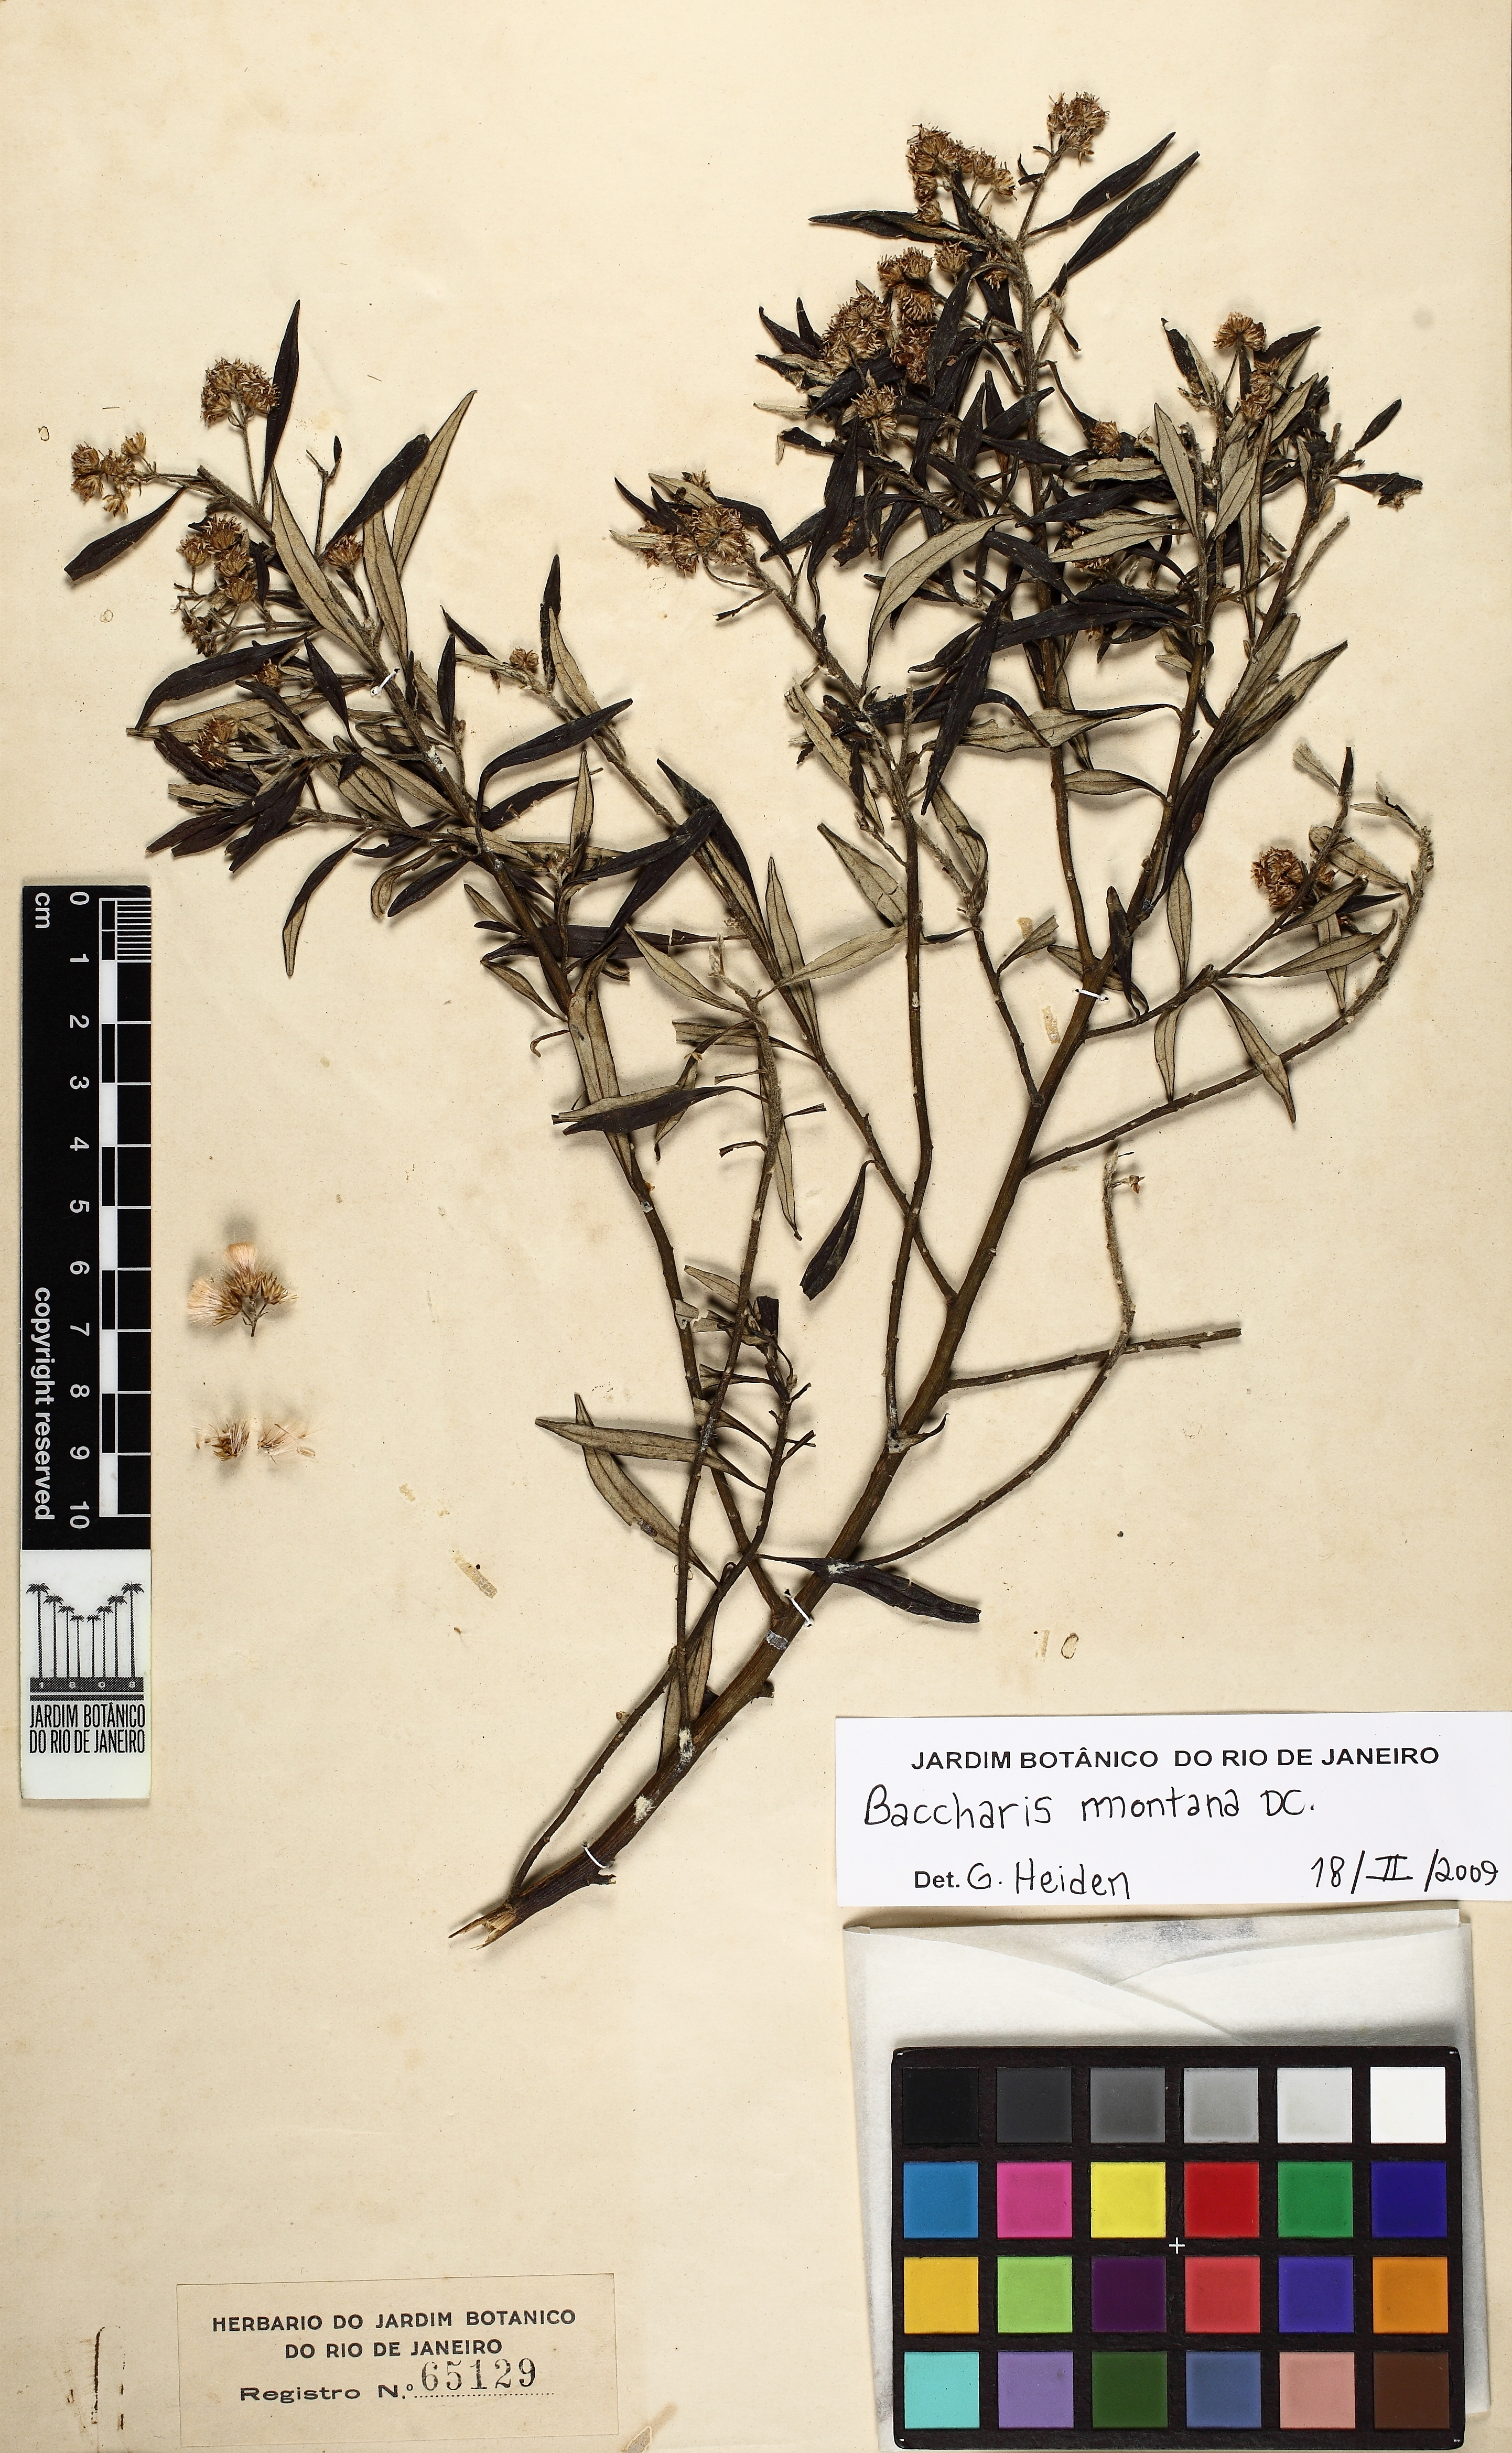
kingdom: Plantae
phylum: Tracheophyta
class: Magnoliopsida
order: Asterales
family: Asteraceae
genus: Baccharis
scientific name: Baccharis montana
